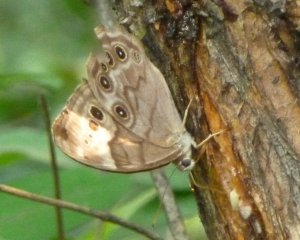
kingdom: Animalia
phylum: Arthropoda
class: Insecta
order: Lepidoptera
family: Nymphalidae
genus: Lethe
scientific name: Lethe anthedon
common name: Northern Pearly-Eye
